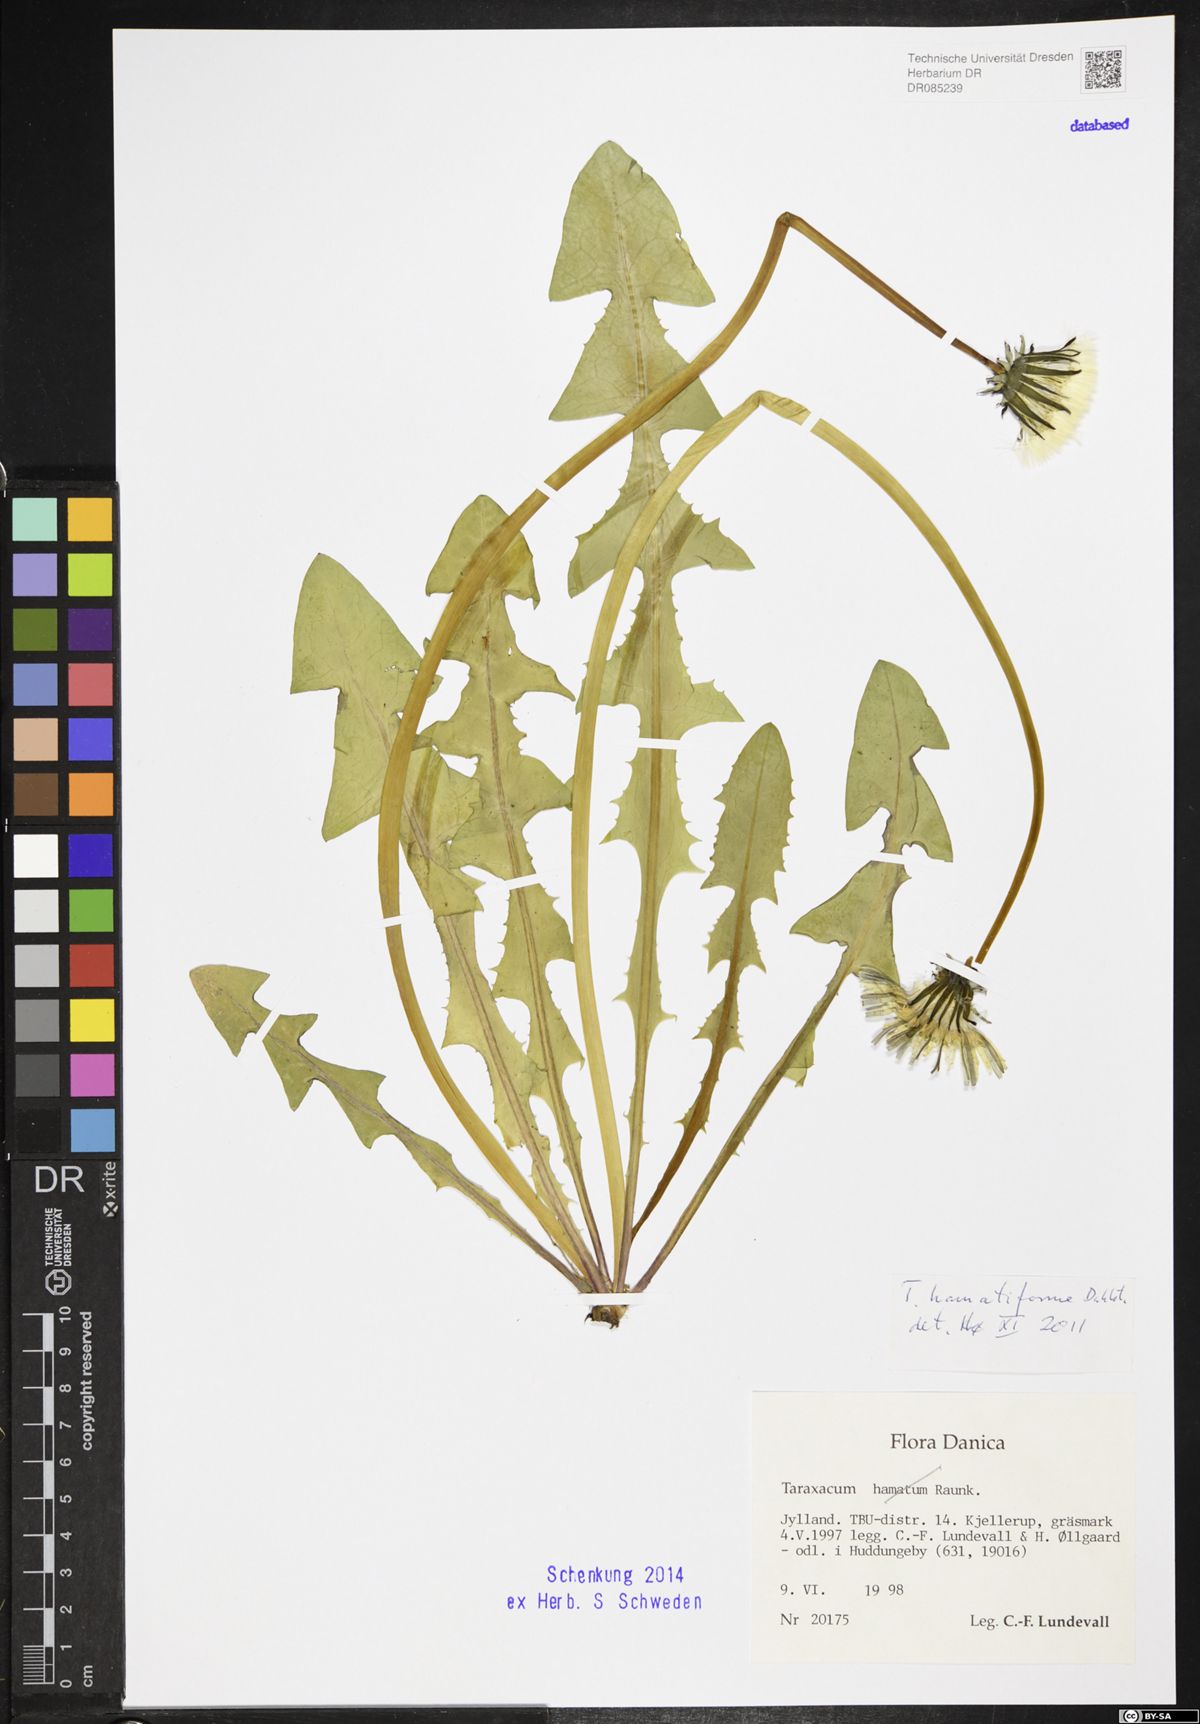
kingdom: Plantae
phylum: Tracheophyta
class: Magnoliopsida
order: Asterales
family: Asteraceae
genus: Taraxacum
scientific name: Taraxacum hamatiforme
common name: Asymmetrical hook-lobed dandelion
